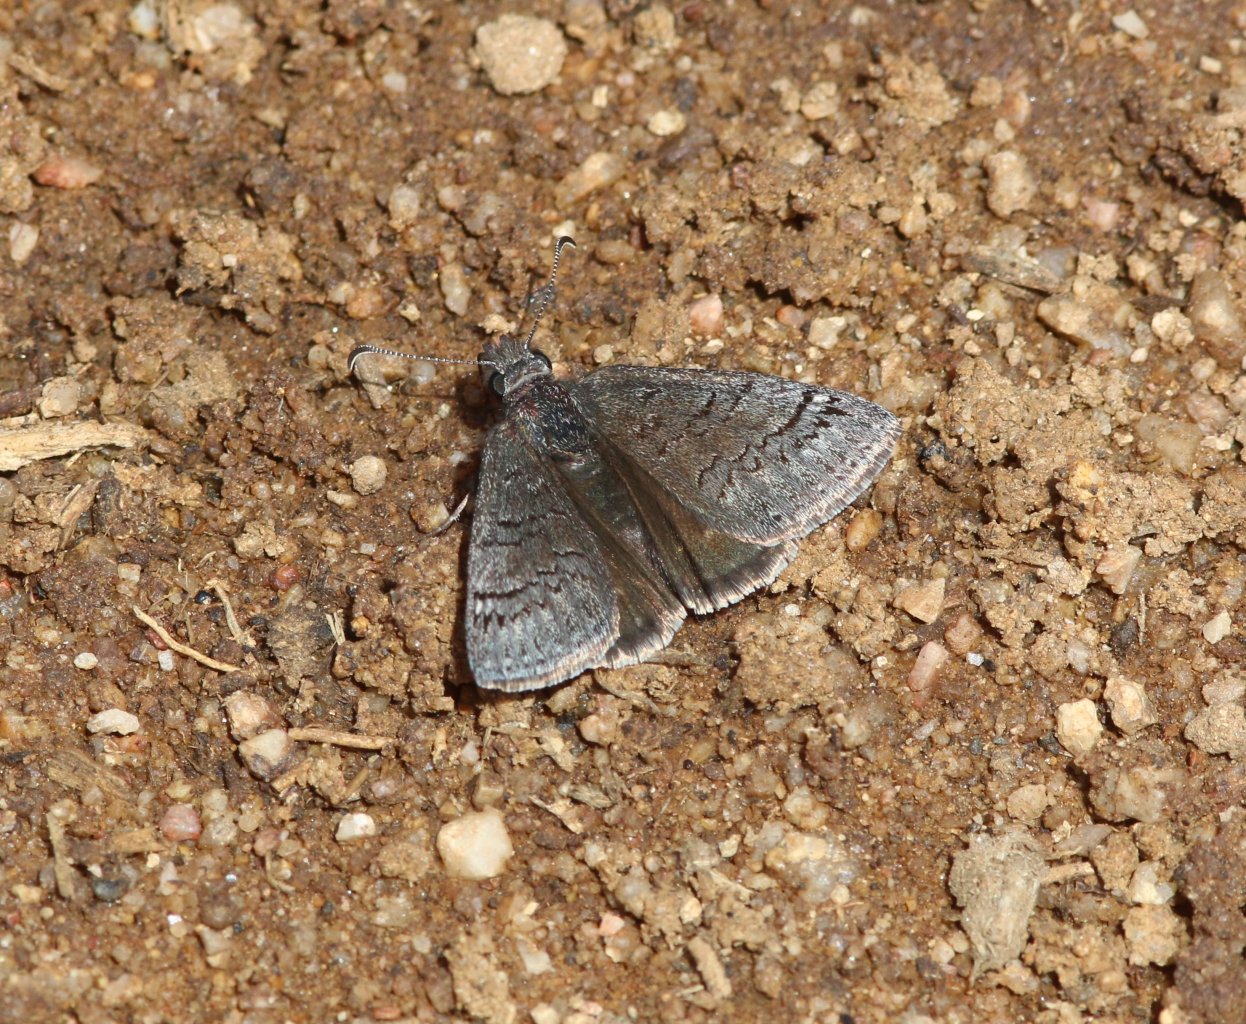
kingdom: Animalia
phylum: Arthropoda
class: Insecta
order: Lepidoptera
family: Hesperiidae
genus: Erynnis
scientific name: Erynnis brizo
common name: Sleepy Duskywing
